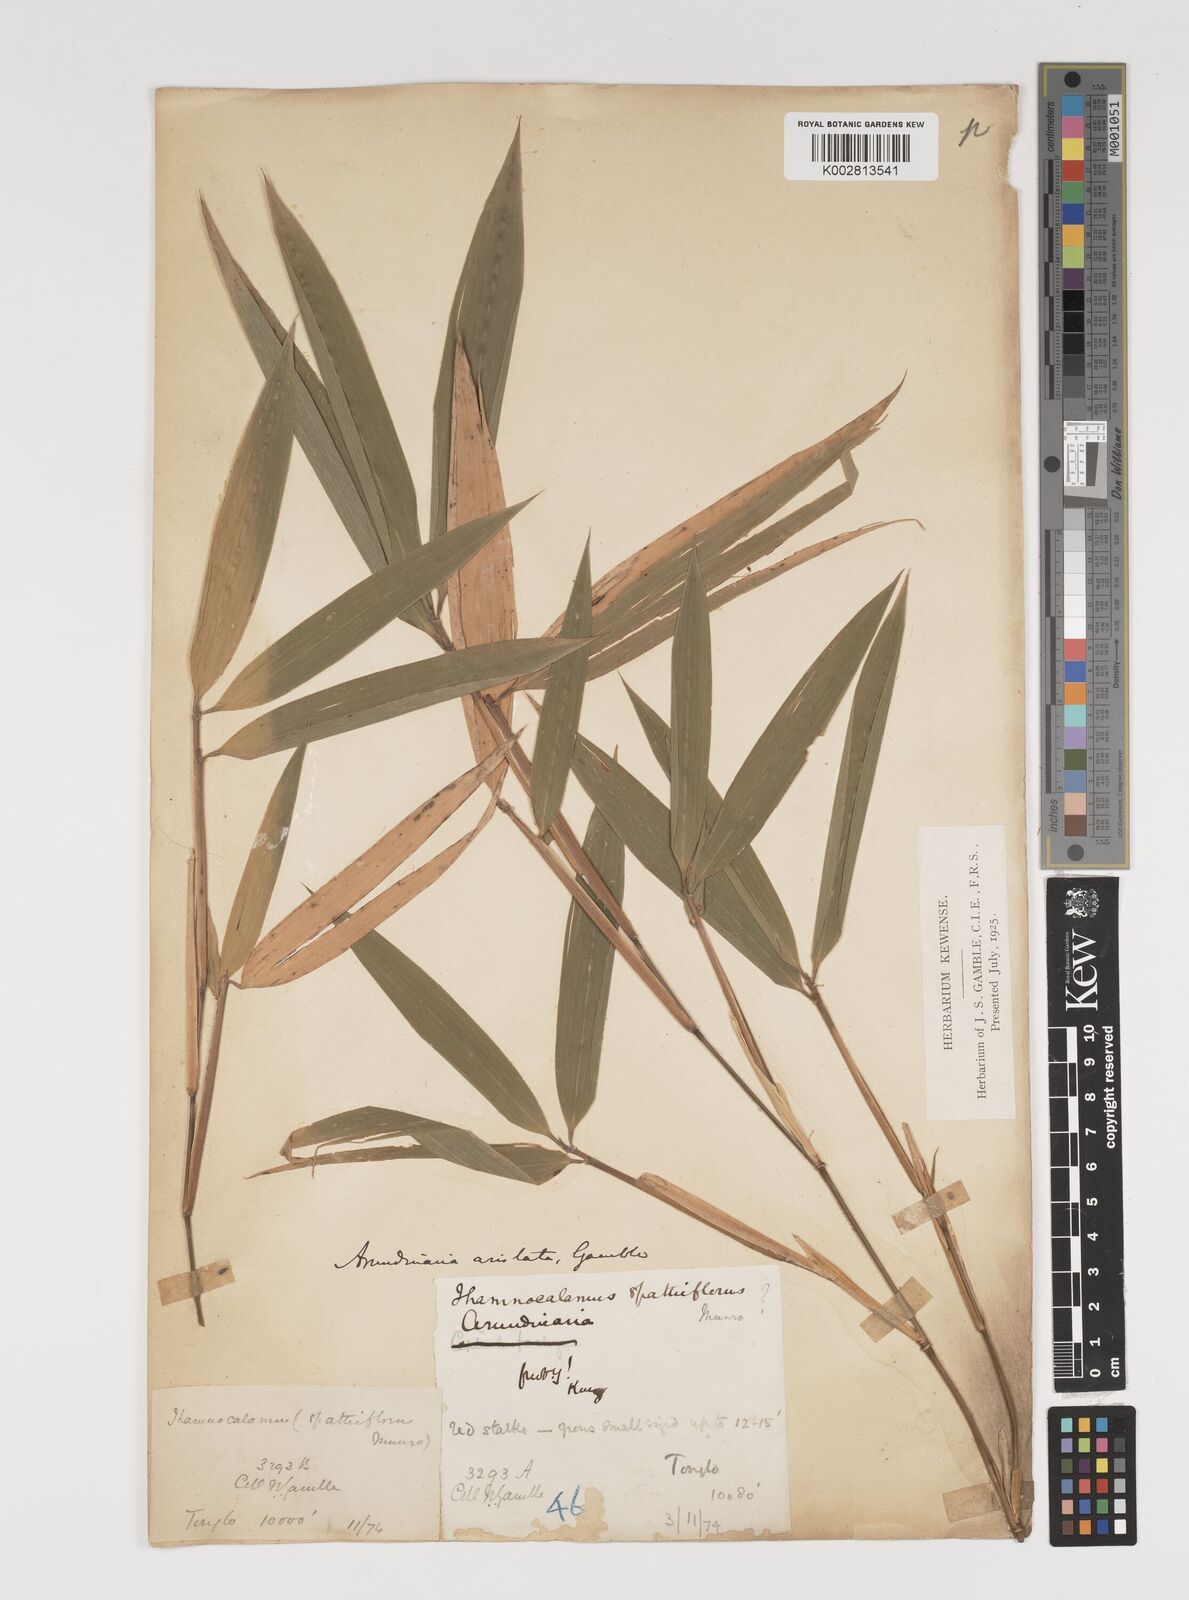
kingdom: Plantae
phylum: Tracheophyta
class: Liliopsida
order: Poales
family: Poaceae
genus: Thamnocalamus
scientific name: Thamnocalamus spathiflorus
